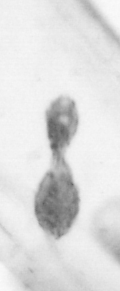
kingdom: Animalia
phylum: Arthropoda
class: Copepoda
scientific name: Copepoda
